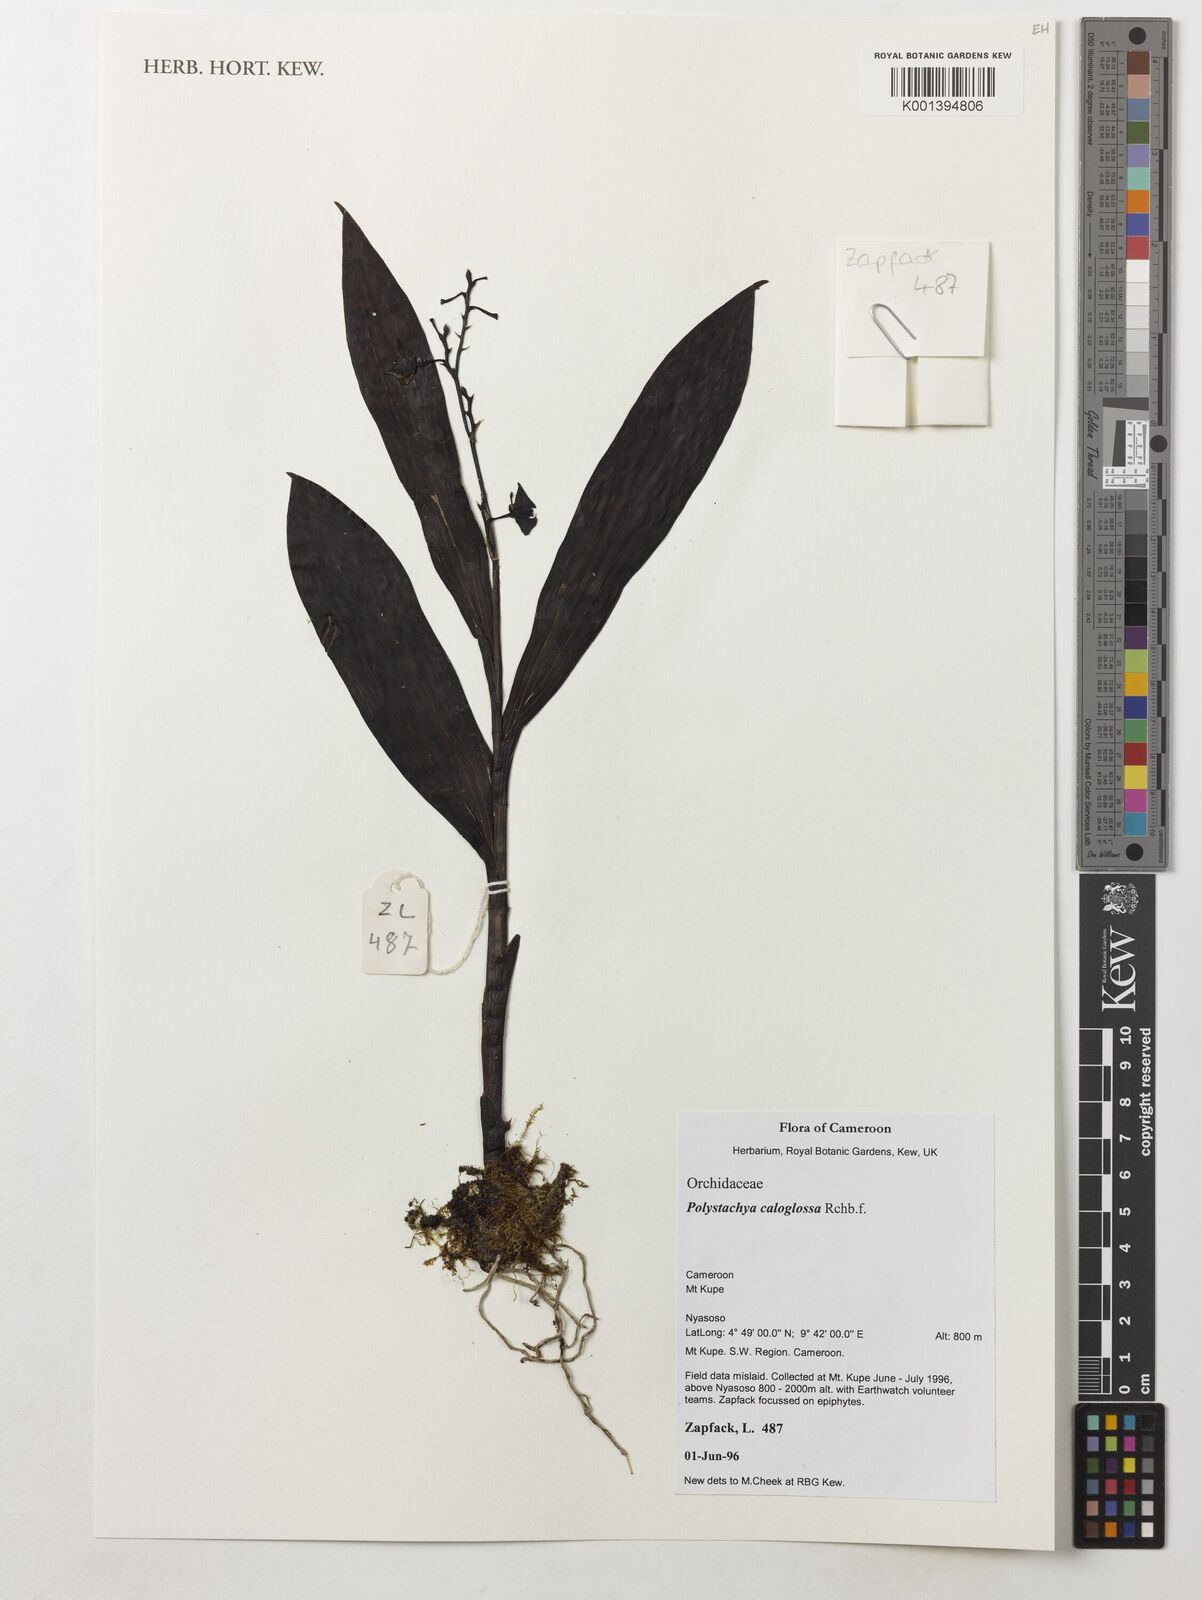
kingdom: Plantae
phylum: Tracheophyta
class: Liliopsida
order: Asparagales
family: Orchidaceae
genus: Polystachya
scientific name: Polystachya caloglossa
